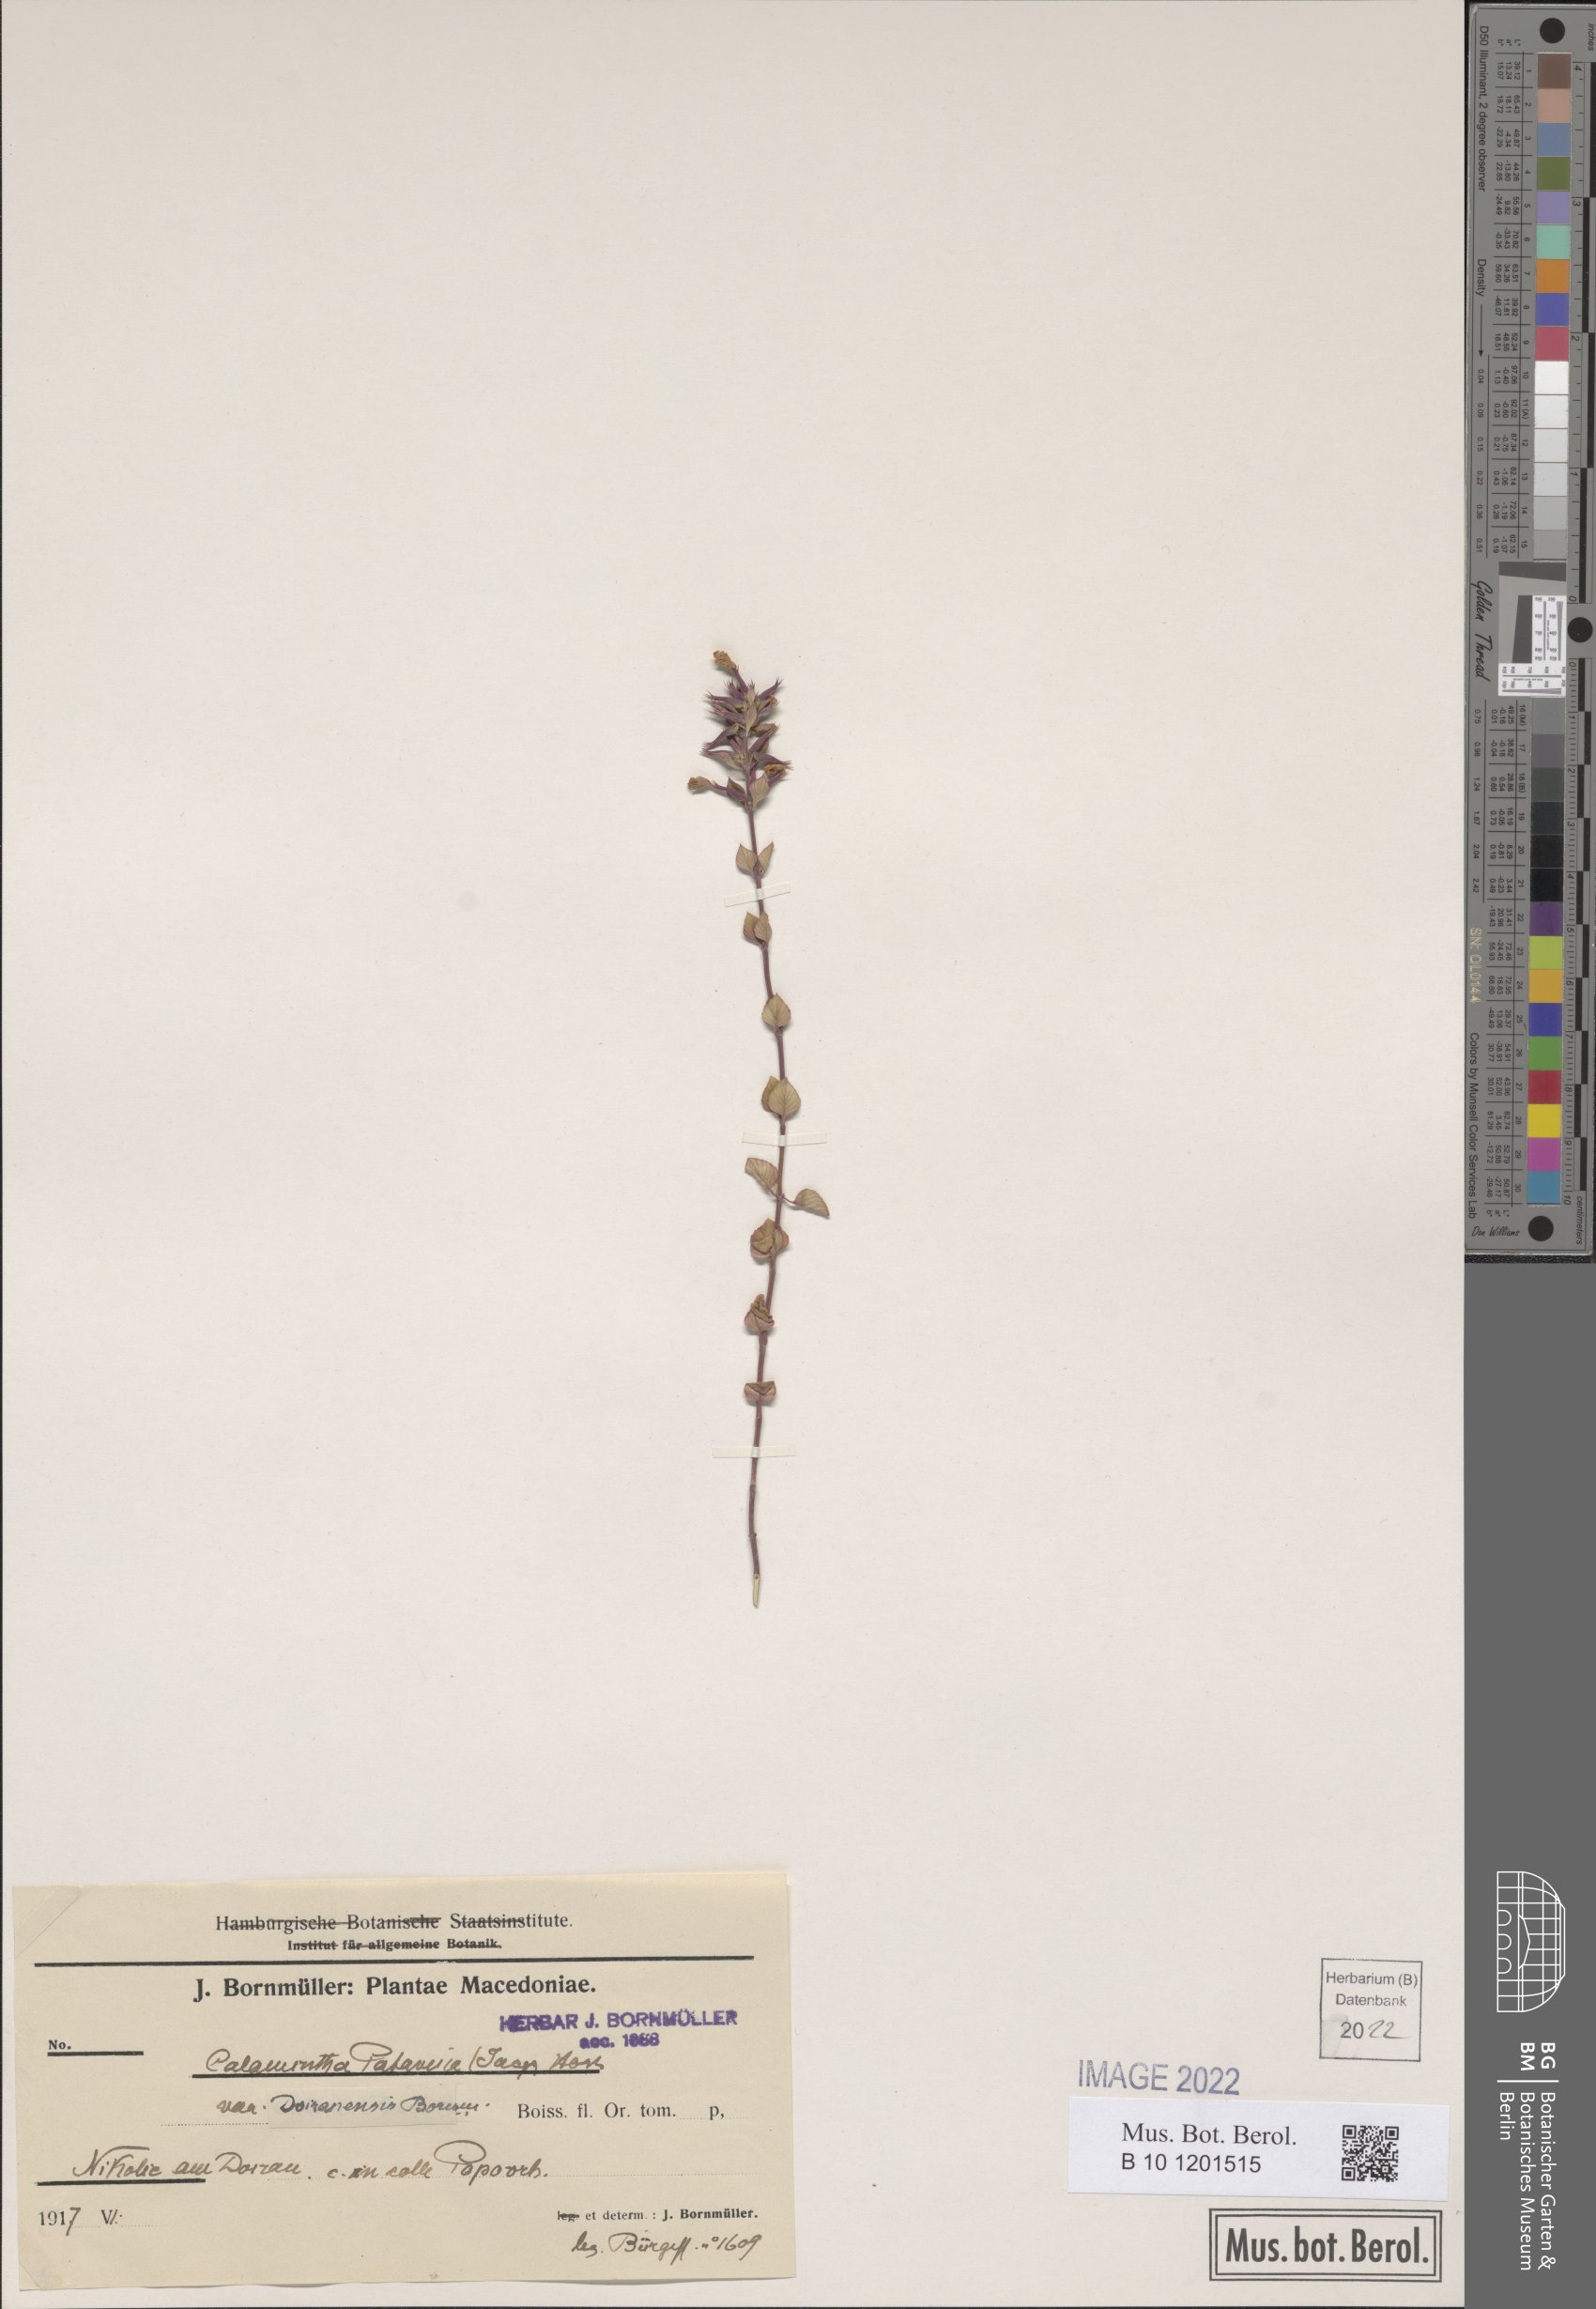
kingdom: Plantae
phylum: Tracheophyta
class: Magnoliopsida
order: Lamiales
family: Lamiaceae
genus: Clinopodium
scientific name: Clinopodium alpinum
